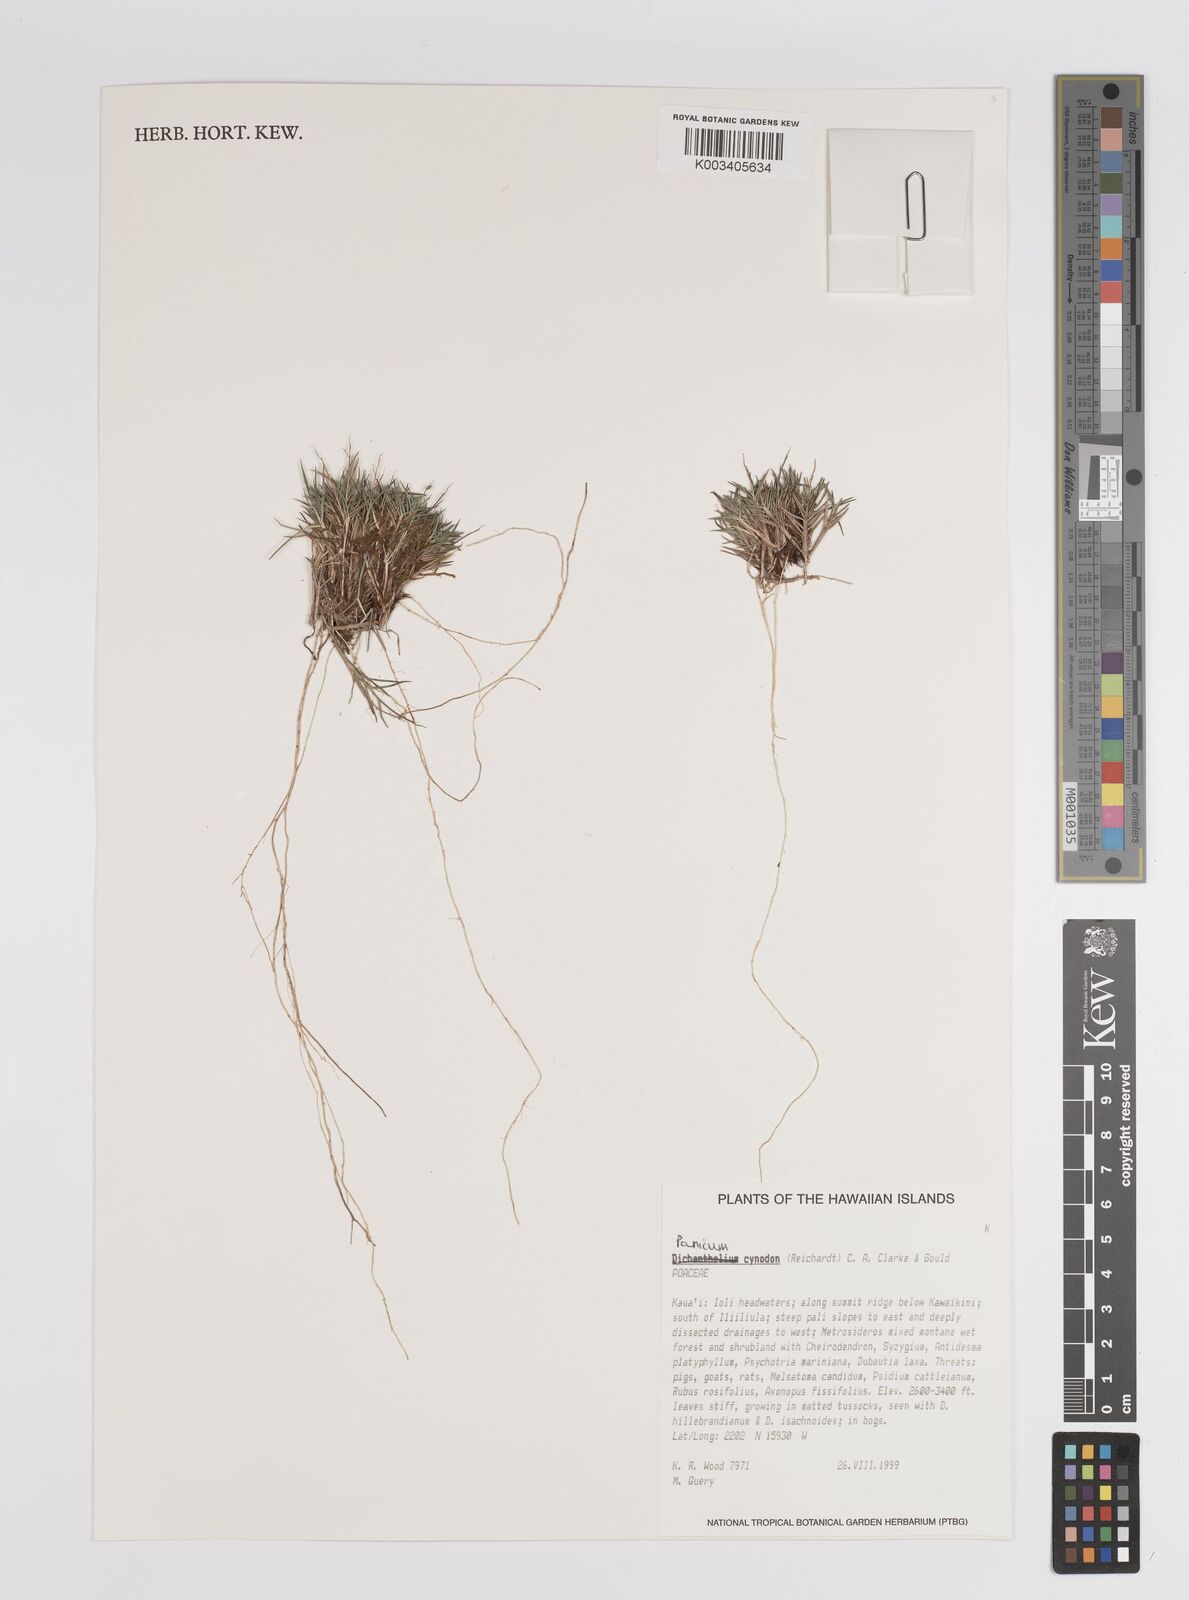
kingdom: Plantae
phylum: Tracheophyta
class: Liliopsida
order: Poales
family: Poaceae
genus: Dichanthelium
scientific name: Dichanthelium cynodon
